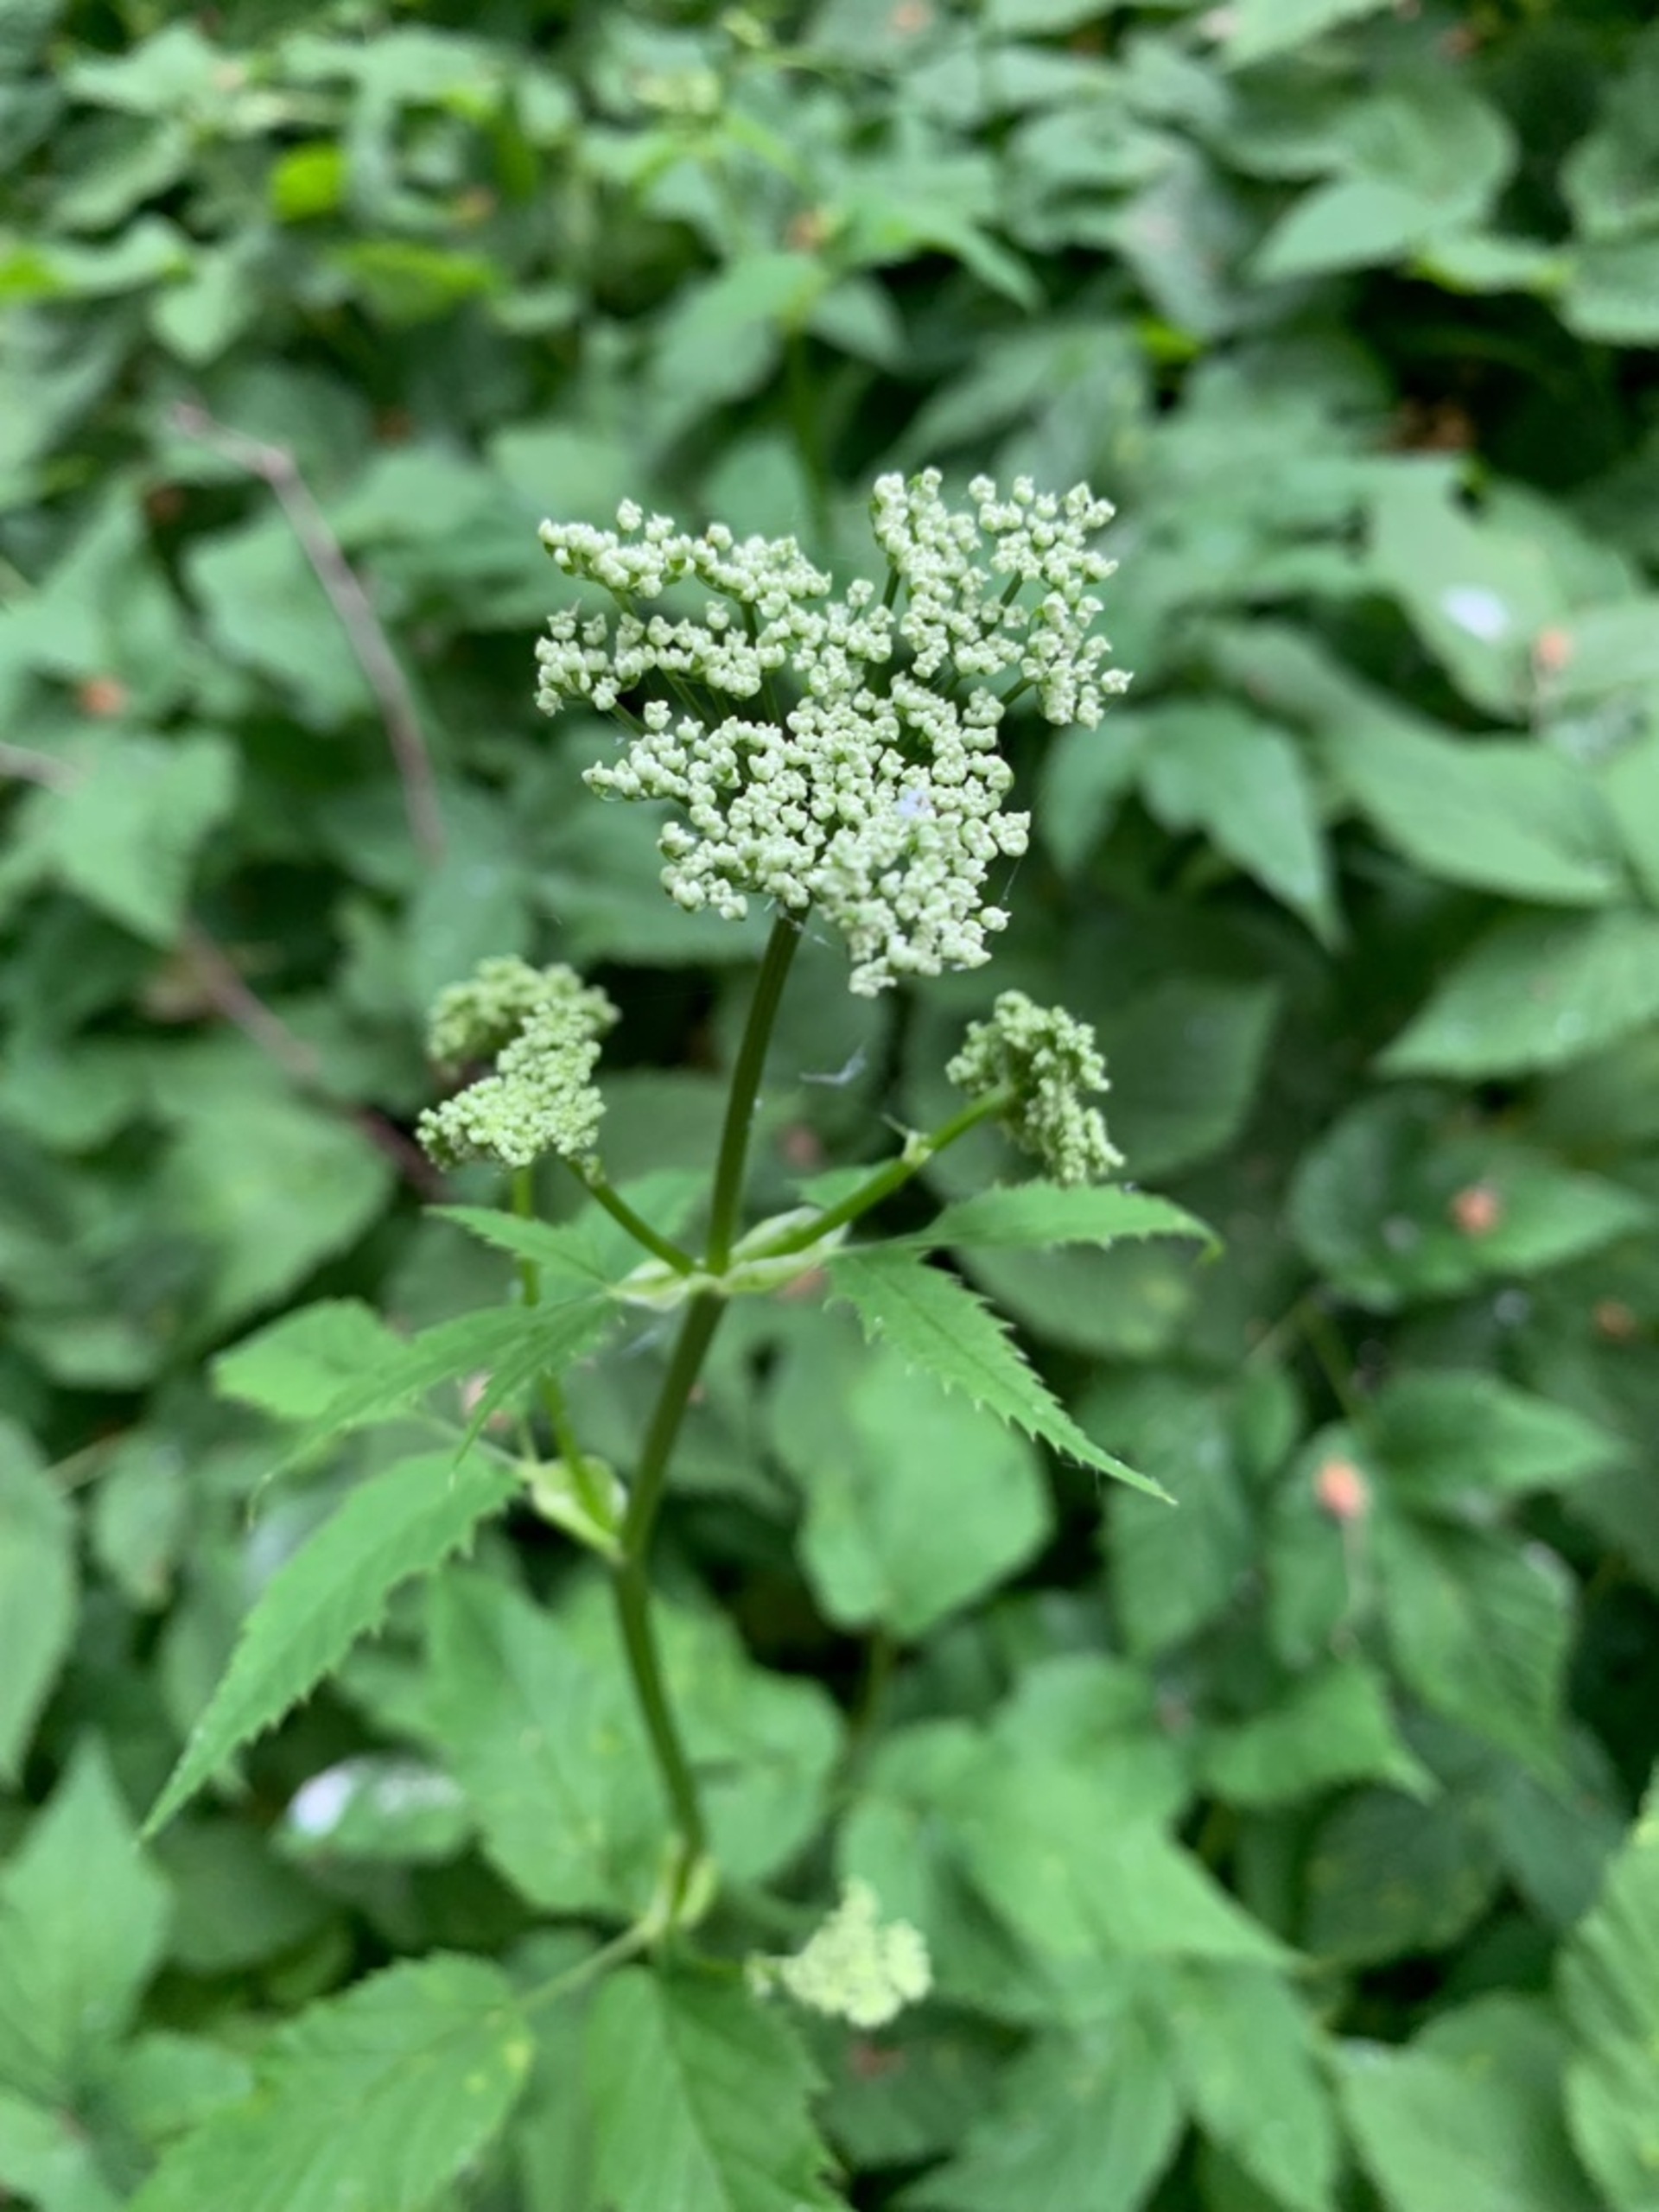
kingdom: Plantae
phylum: Tracheophyta
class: Magnoliopsida
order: Apiales
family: Apiaceae
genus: Aegopodium
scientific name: Aegopodium podagraria
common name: Skvalderkål
